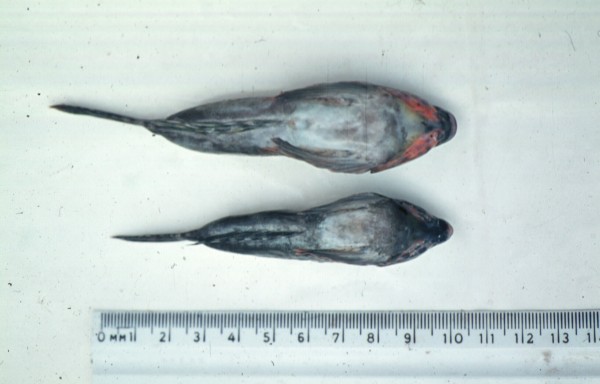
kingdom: Animalia
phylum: Chordata
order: Perciformes
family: Callionymidae
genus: Synchiropus
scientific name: Synchiropus marmoratus
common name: Marbled dragonet
